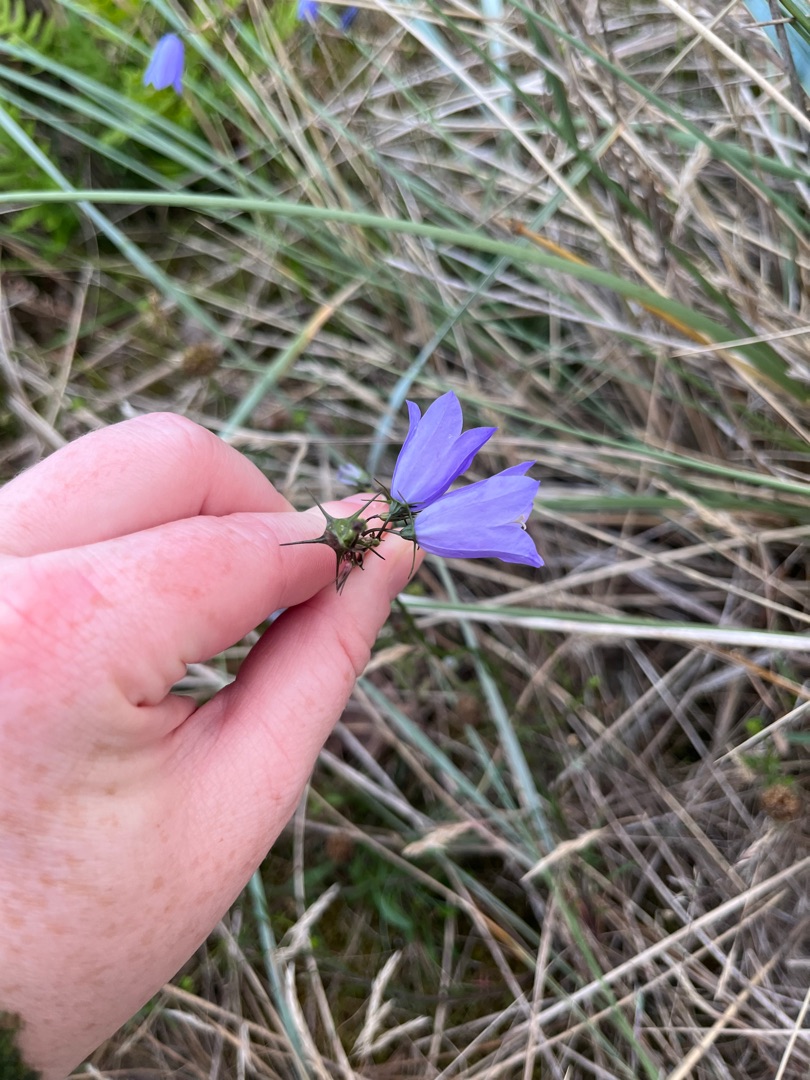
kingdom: Plantae
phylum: Tracheophyta
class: Magnoliopsida
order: Asterales
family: Campanulaceae
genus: Campanula
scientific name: Campanula rotundifolia
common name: Liden klokke
